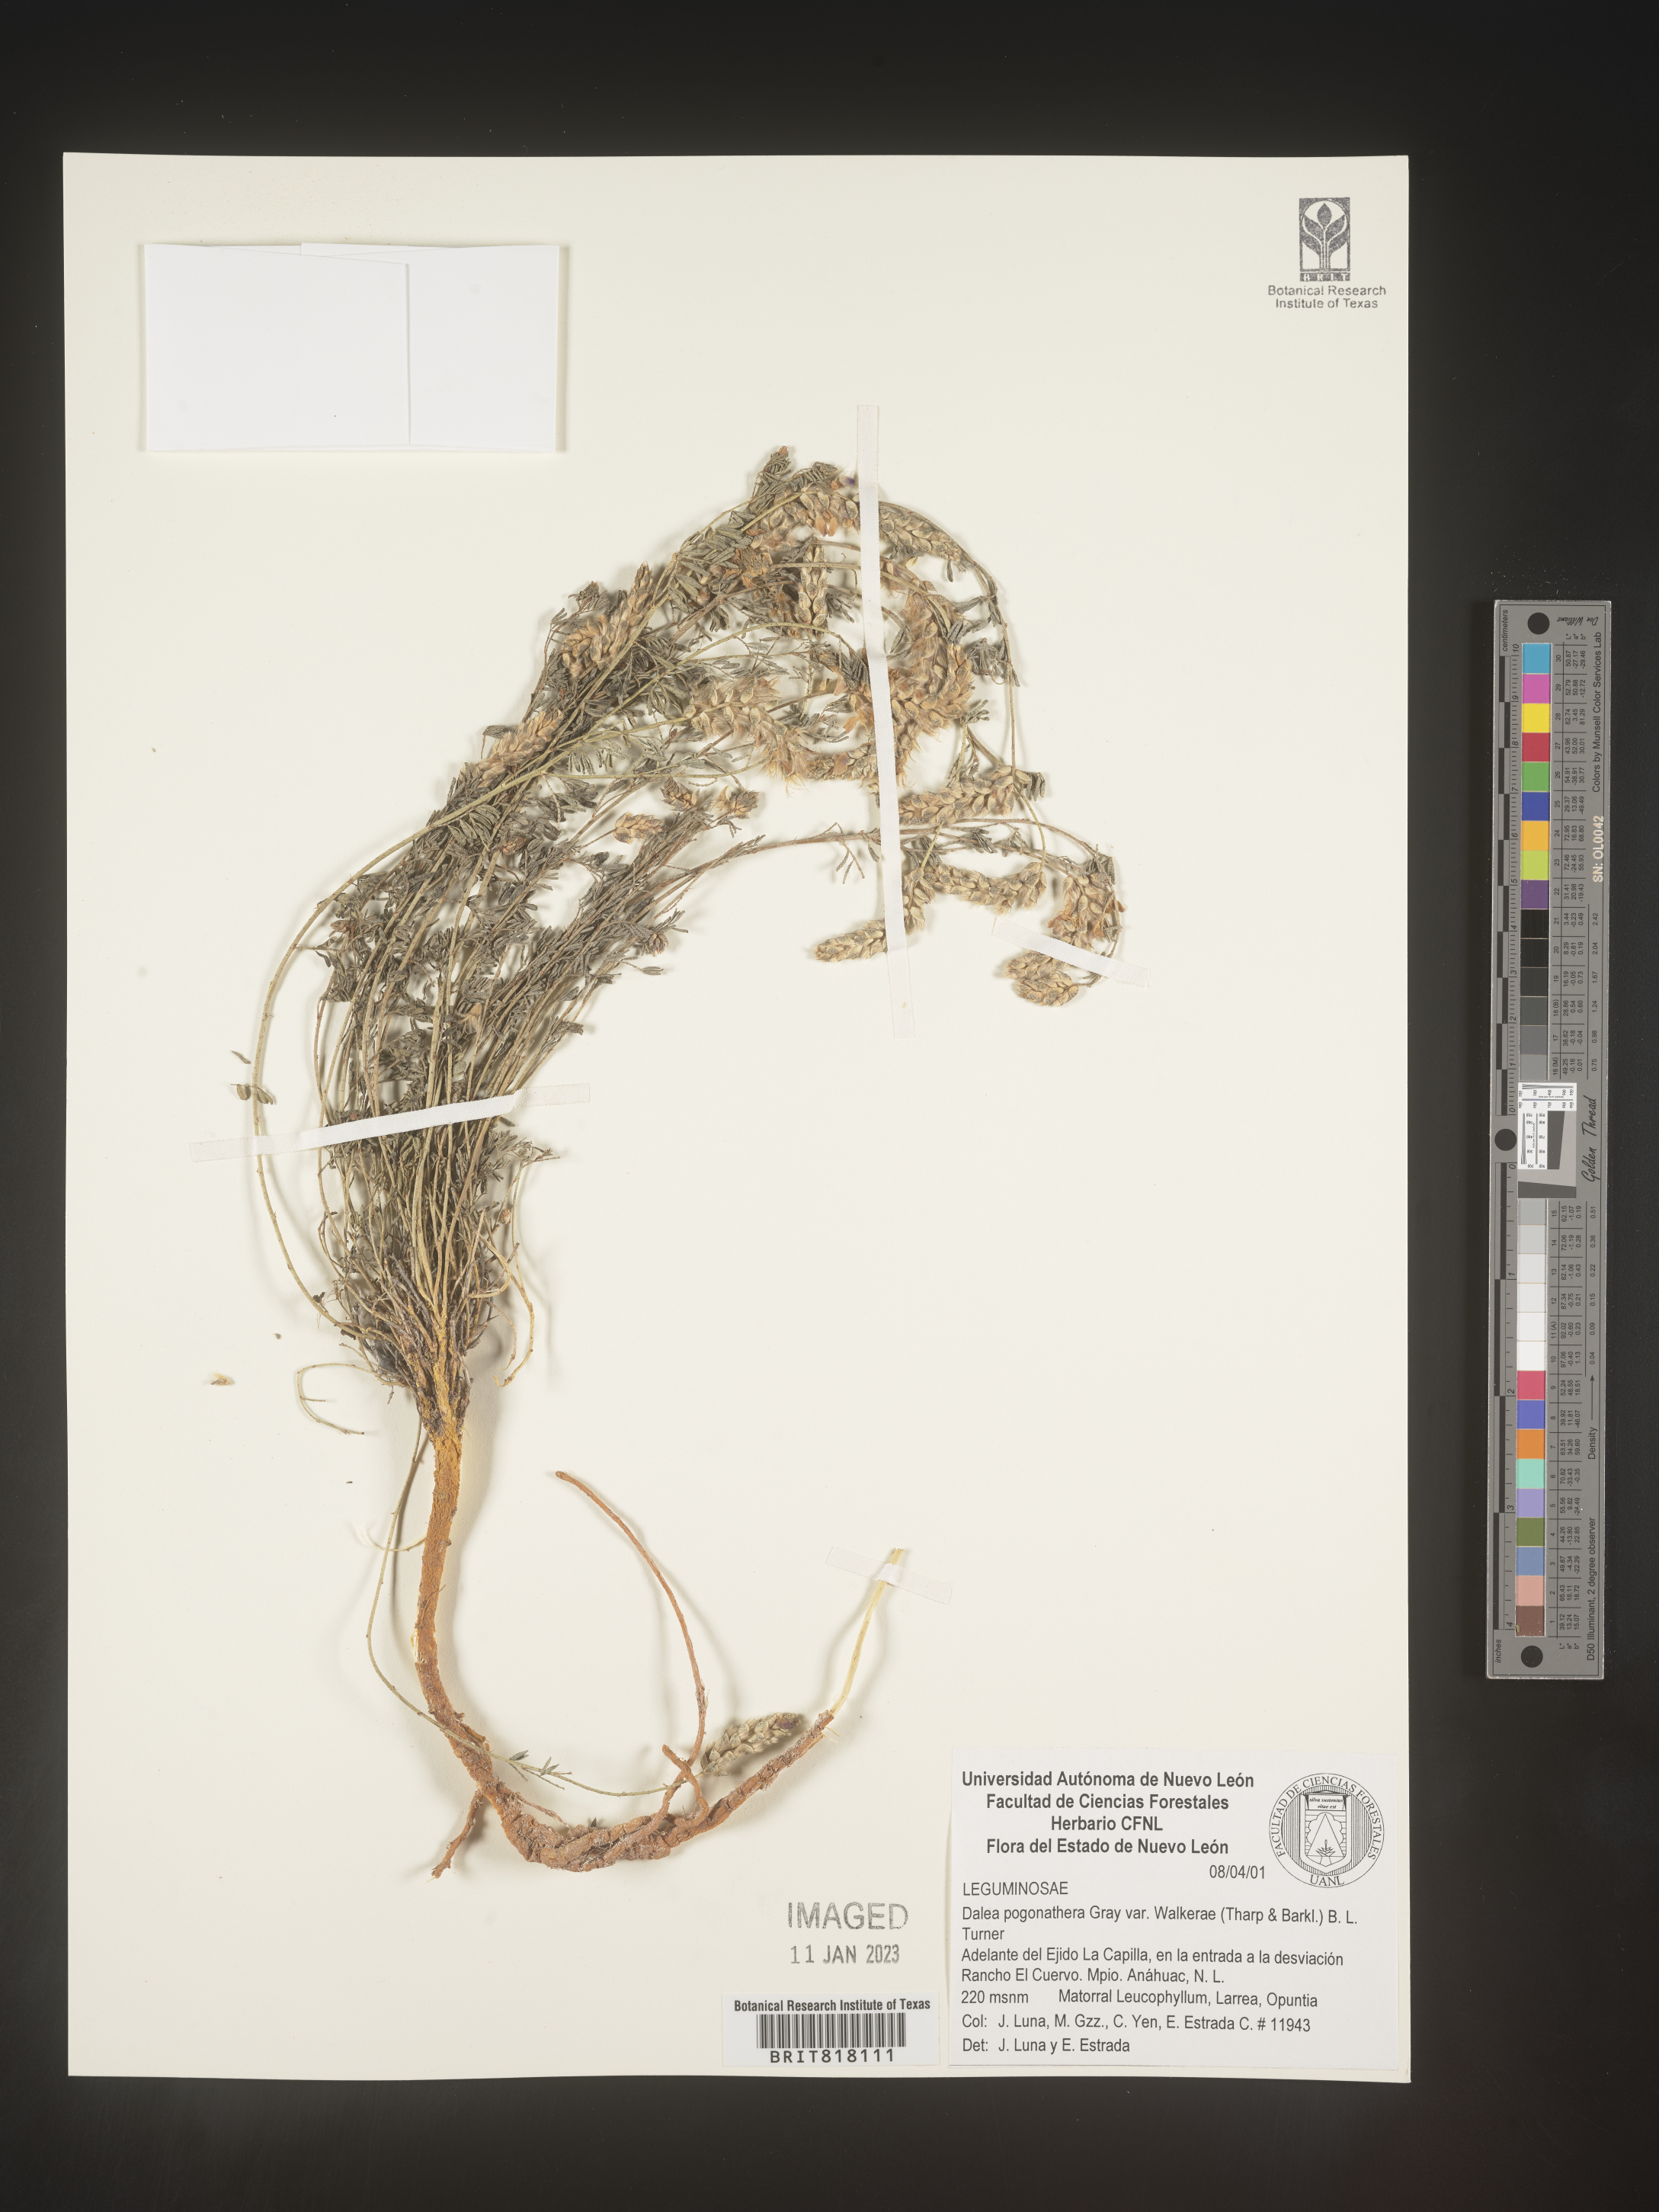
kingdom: Plantae
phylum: Tracheophyta
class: Magnoliopsida
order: Fabales
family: Fabaceae
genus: Dalea
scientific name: Dalea
